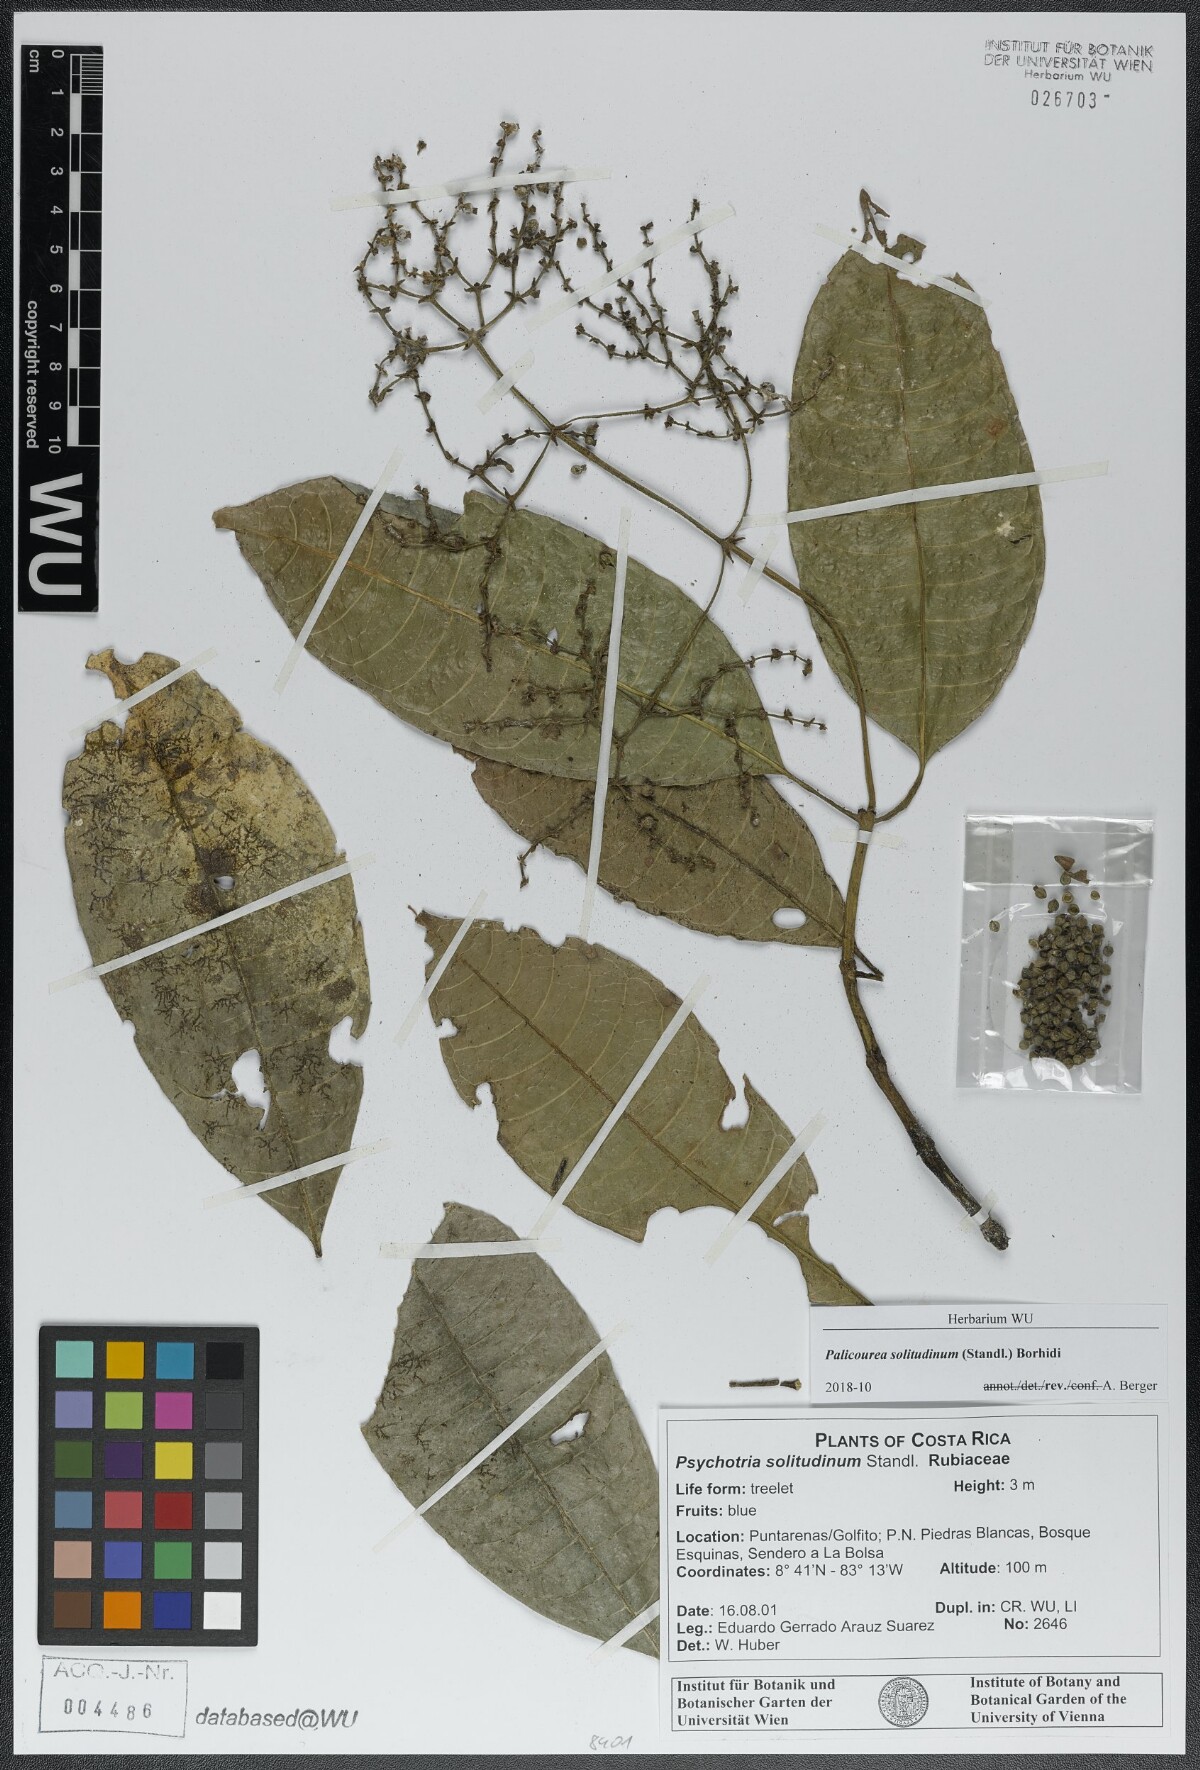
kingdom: Plantae
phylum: Tracheophyta
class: Magnoliopsida
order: Gentianales
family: Rubiaceae
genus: Palicourea
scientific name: Palicourea solitudinum
